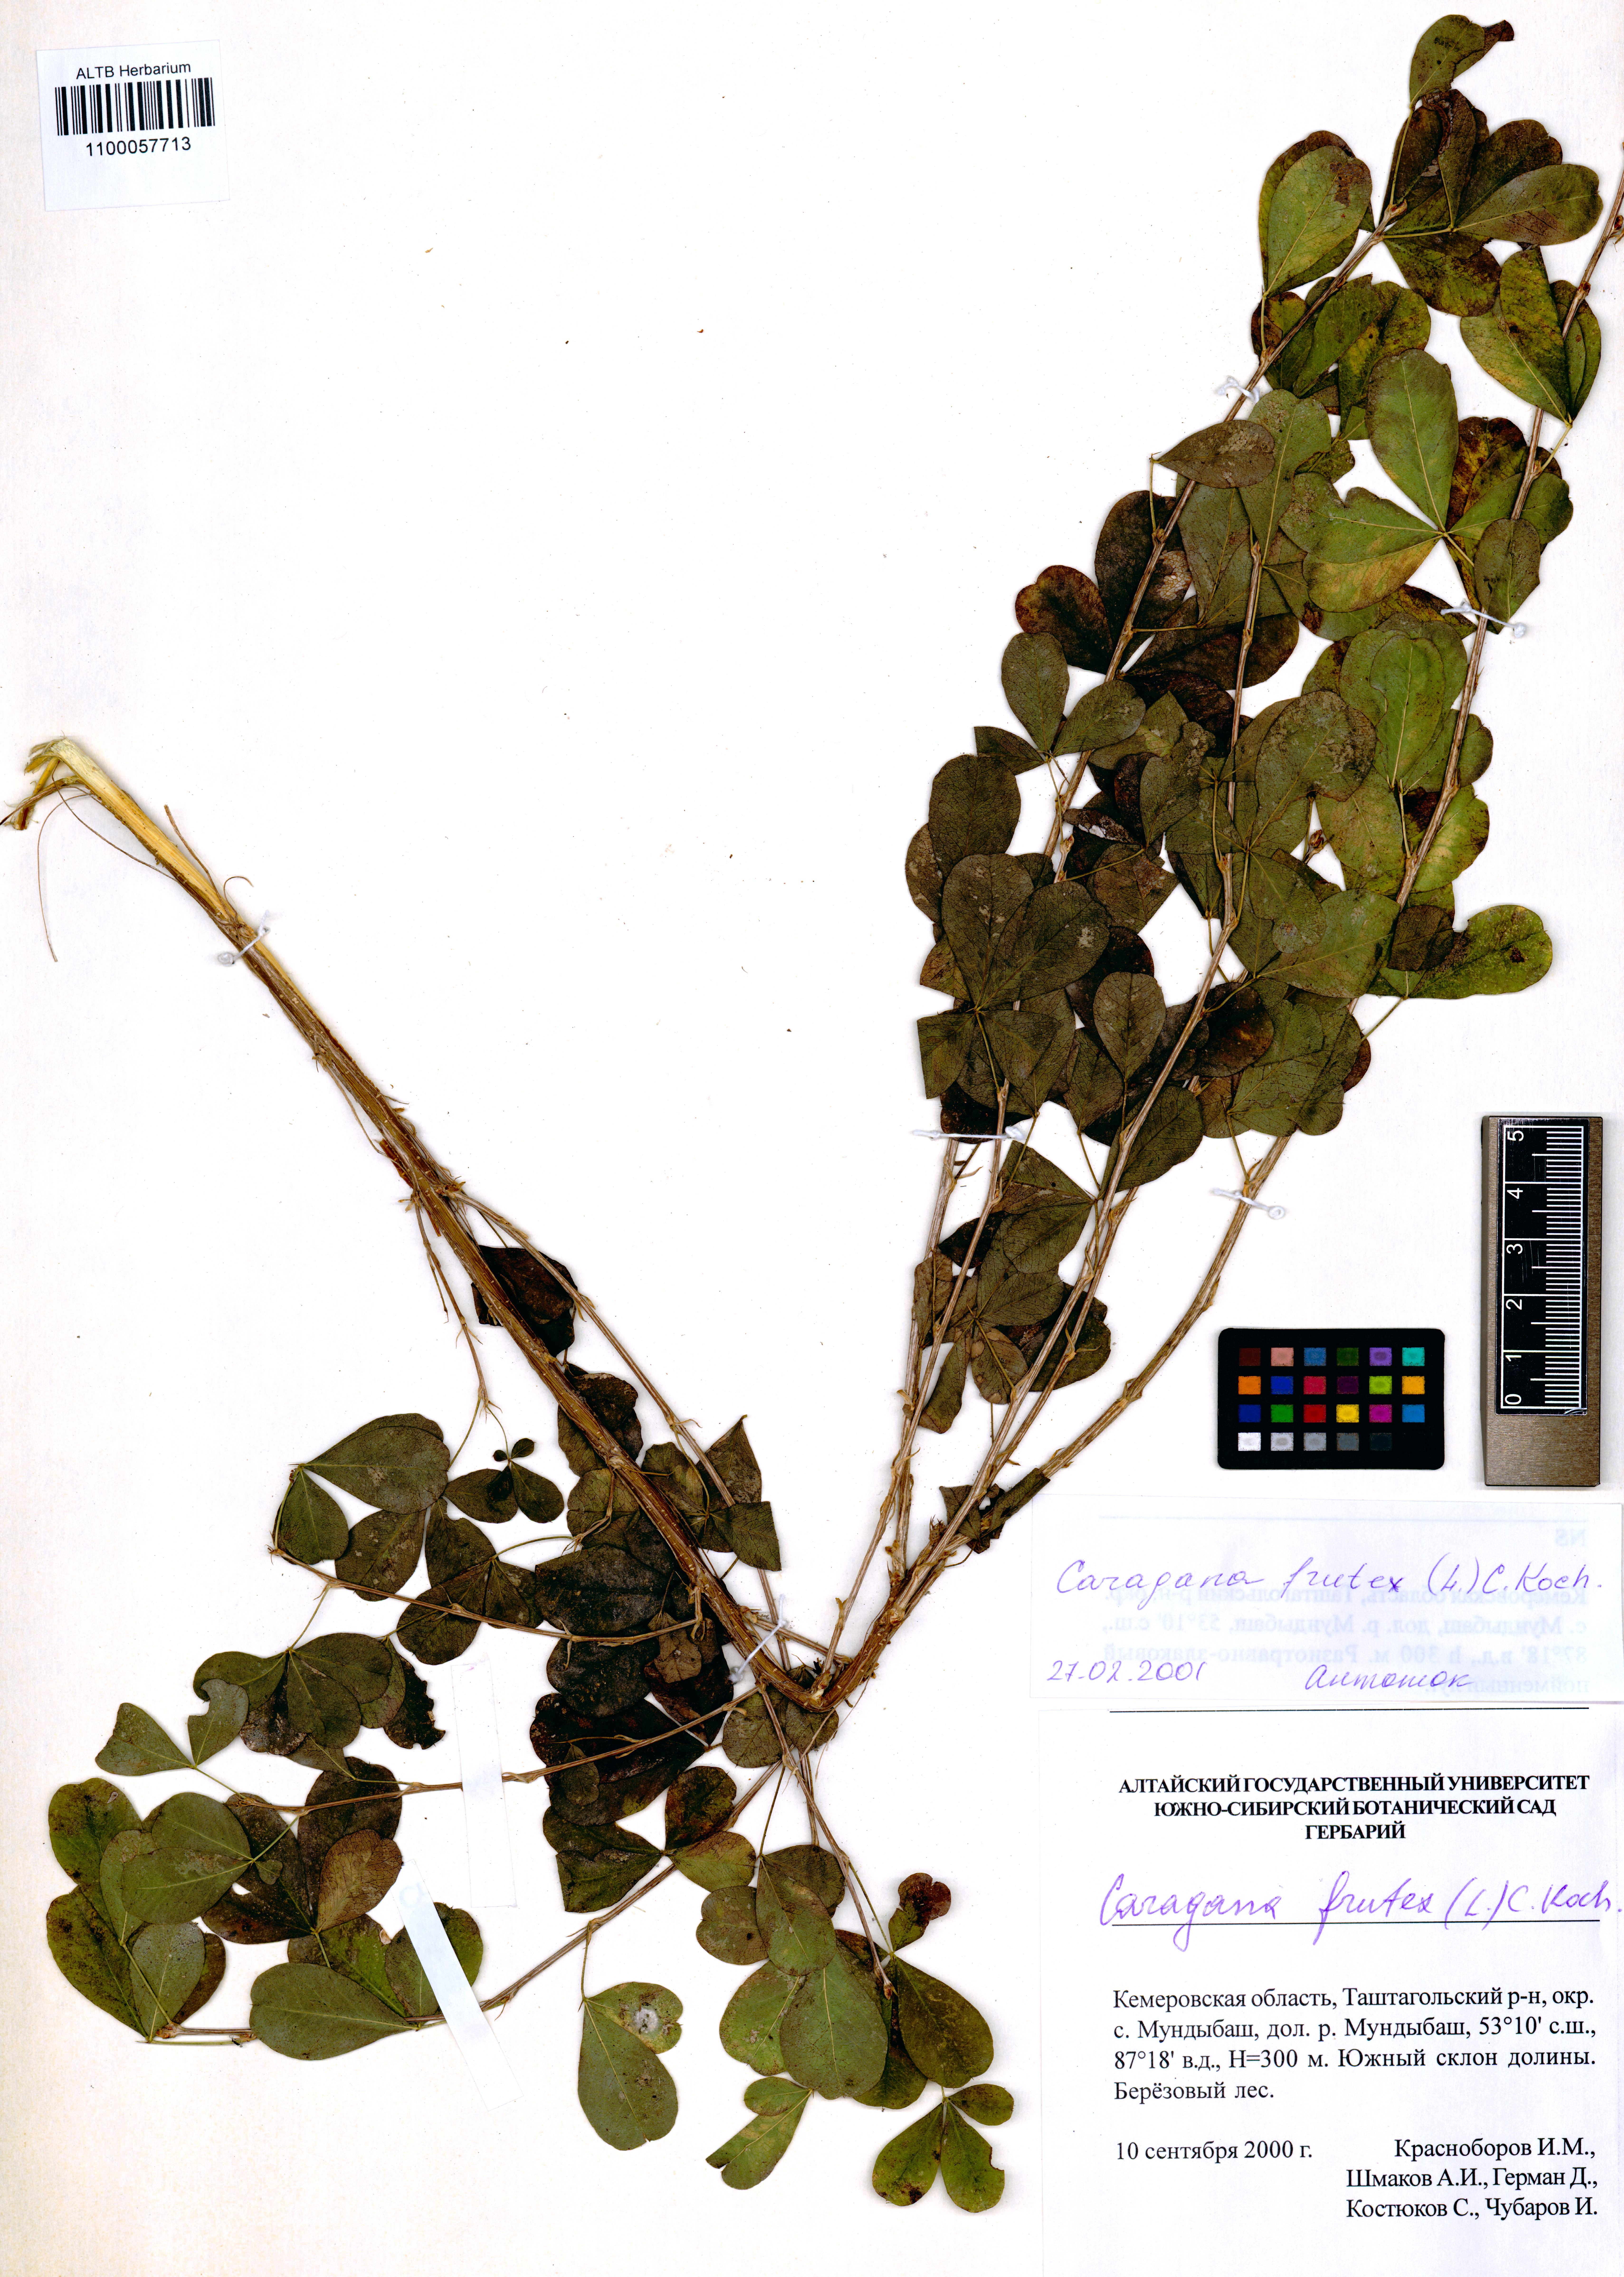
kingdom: Plantae
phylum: Tracheophyta
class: Magnoliopsida
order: Fabales
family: Fabaceae
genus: Caragana
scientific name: Caragana frutex
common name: Russian peashrub
